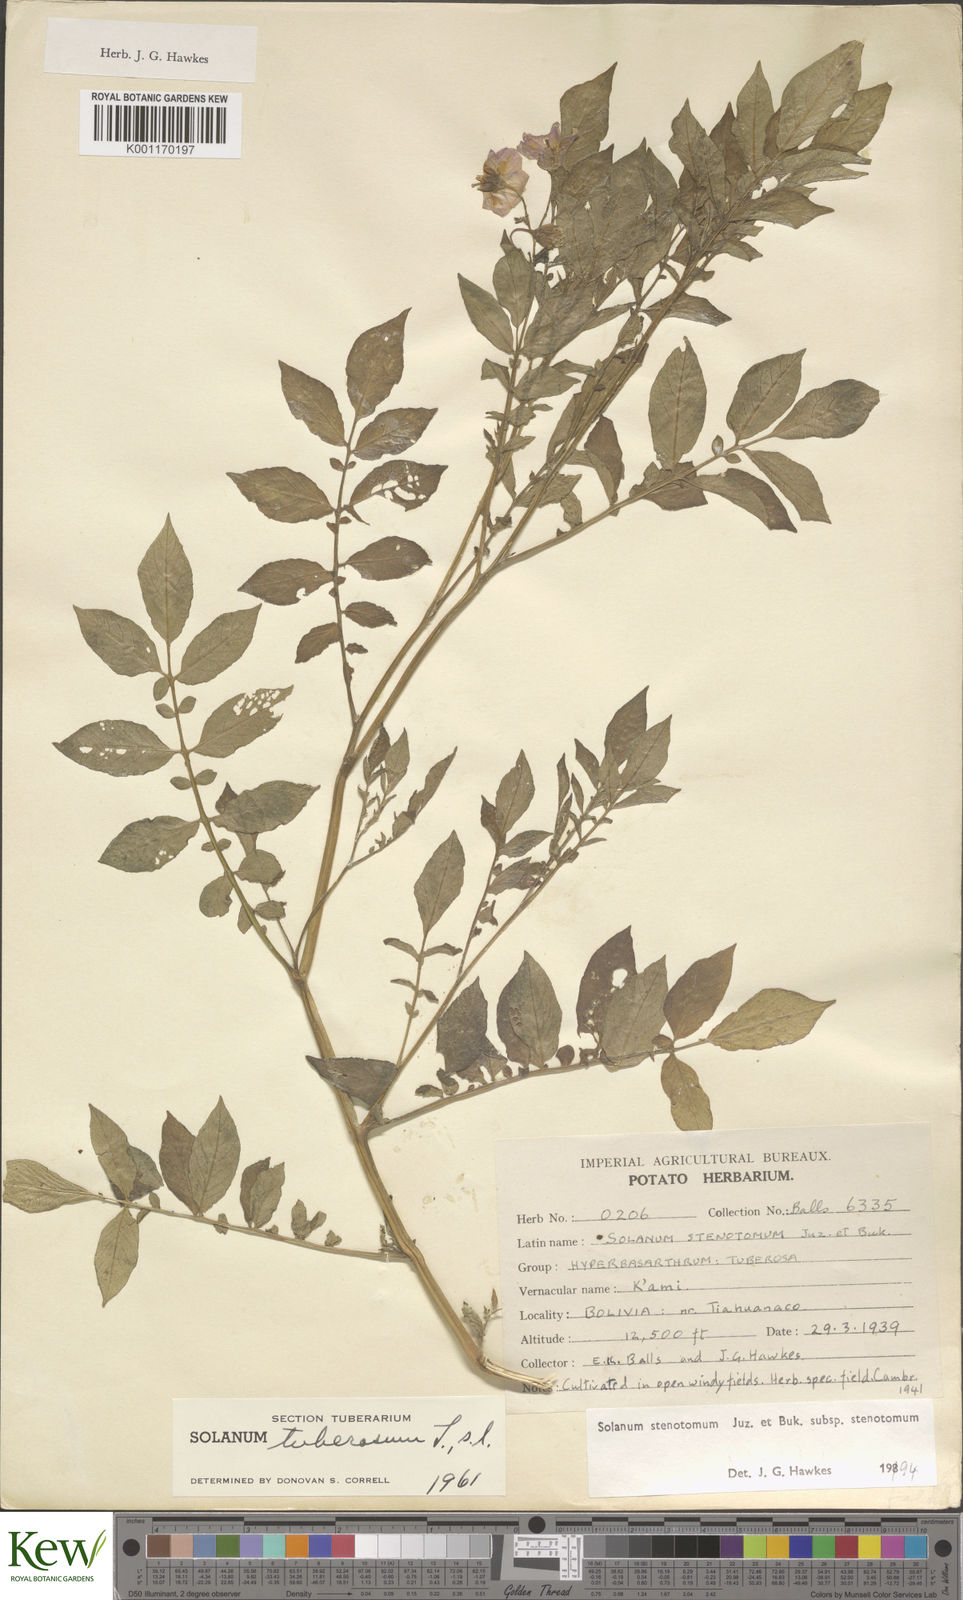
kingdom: Plantae
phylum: Tracheophyta
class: Magnoliopsida
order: Solanales
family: Solanaceae
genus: Solanum
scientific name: Solanum tuberosum
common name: Potato
